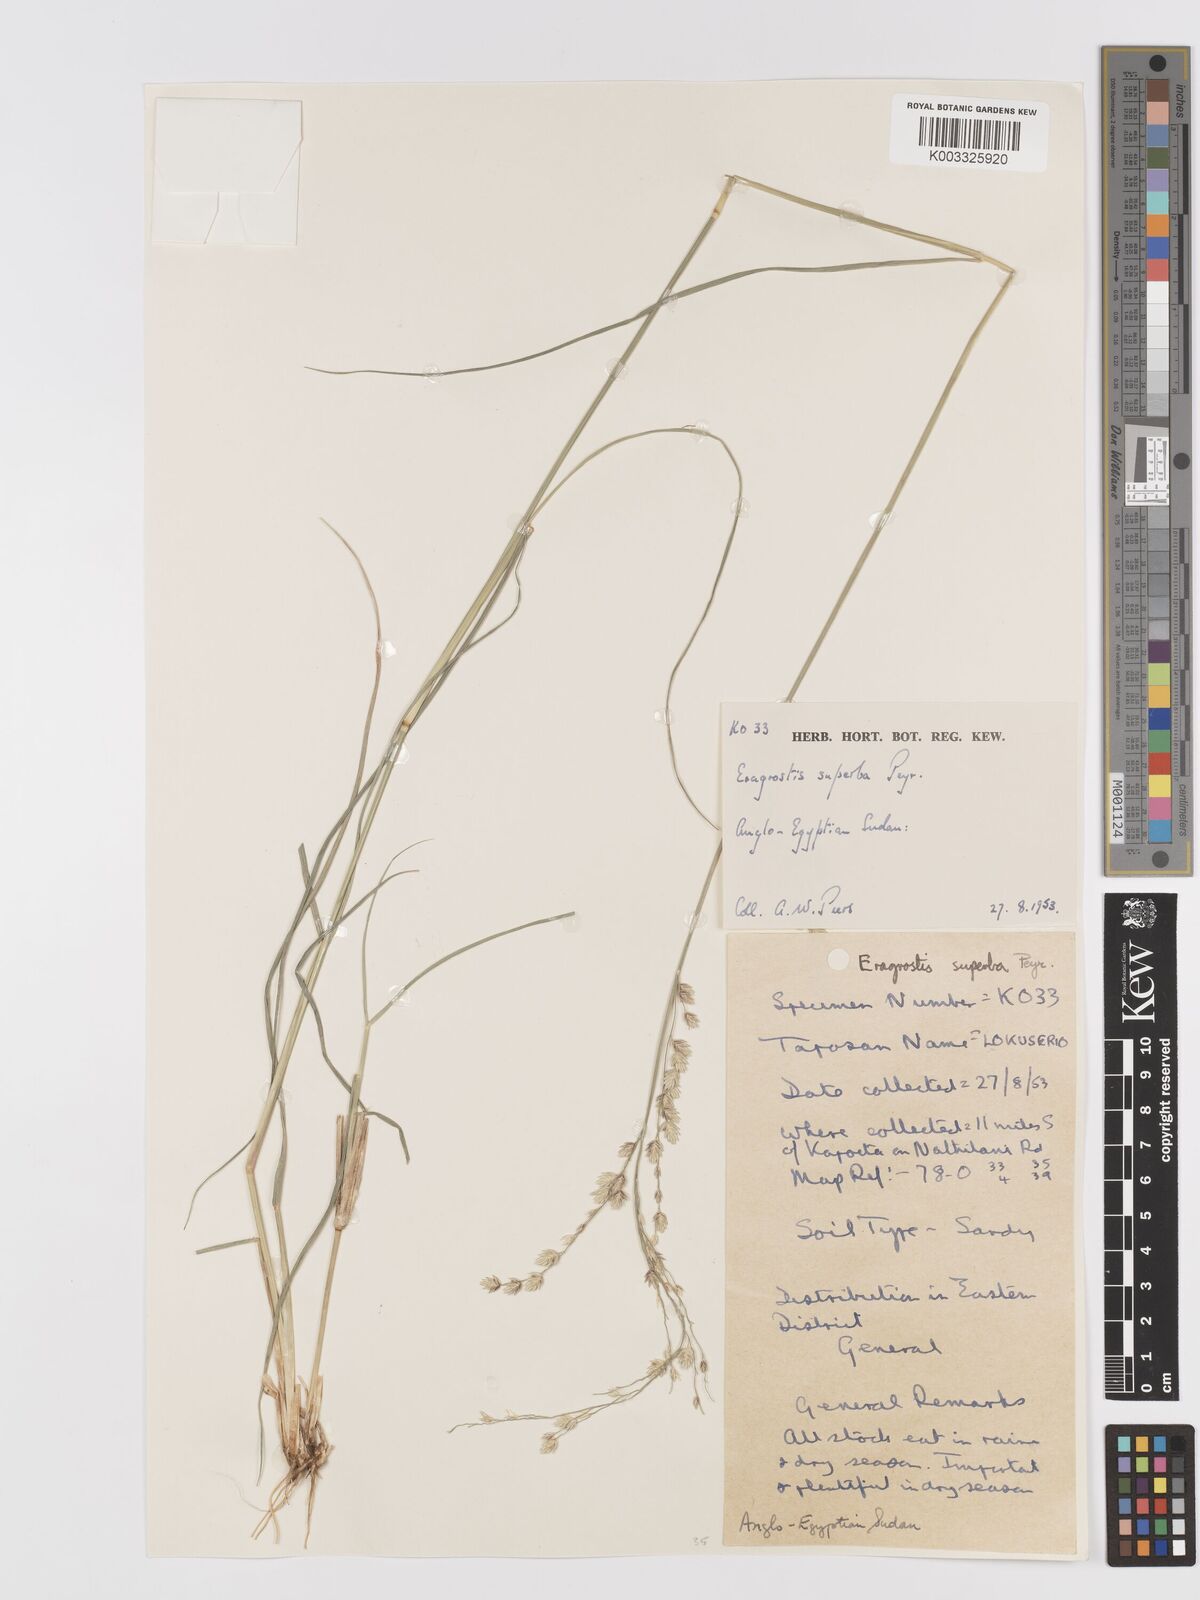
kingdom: Plantae
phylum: Tracheophyta
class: Liliopsida
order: Poales
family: Poaceae
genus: Eragrostis
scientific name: Eragrostis superba
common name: Wilman lovegrass
